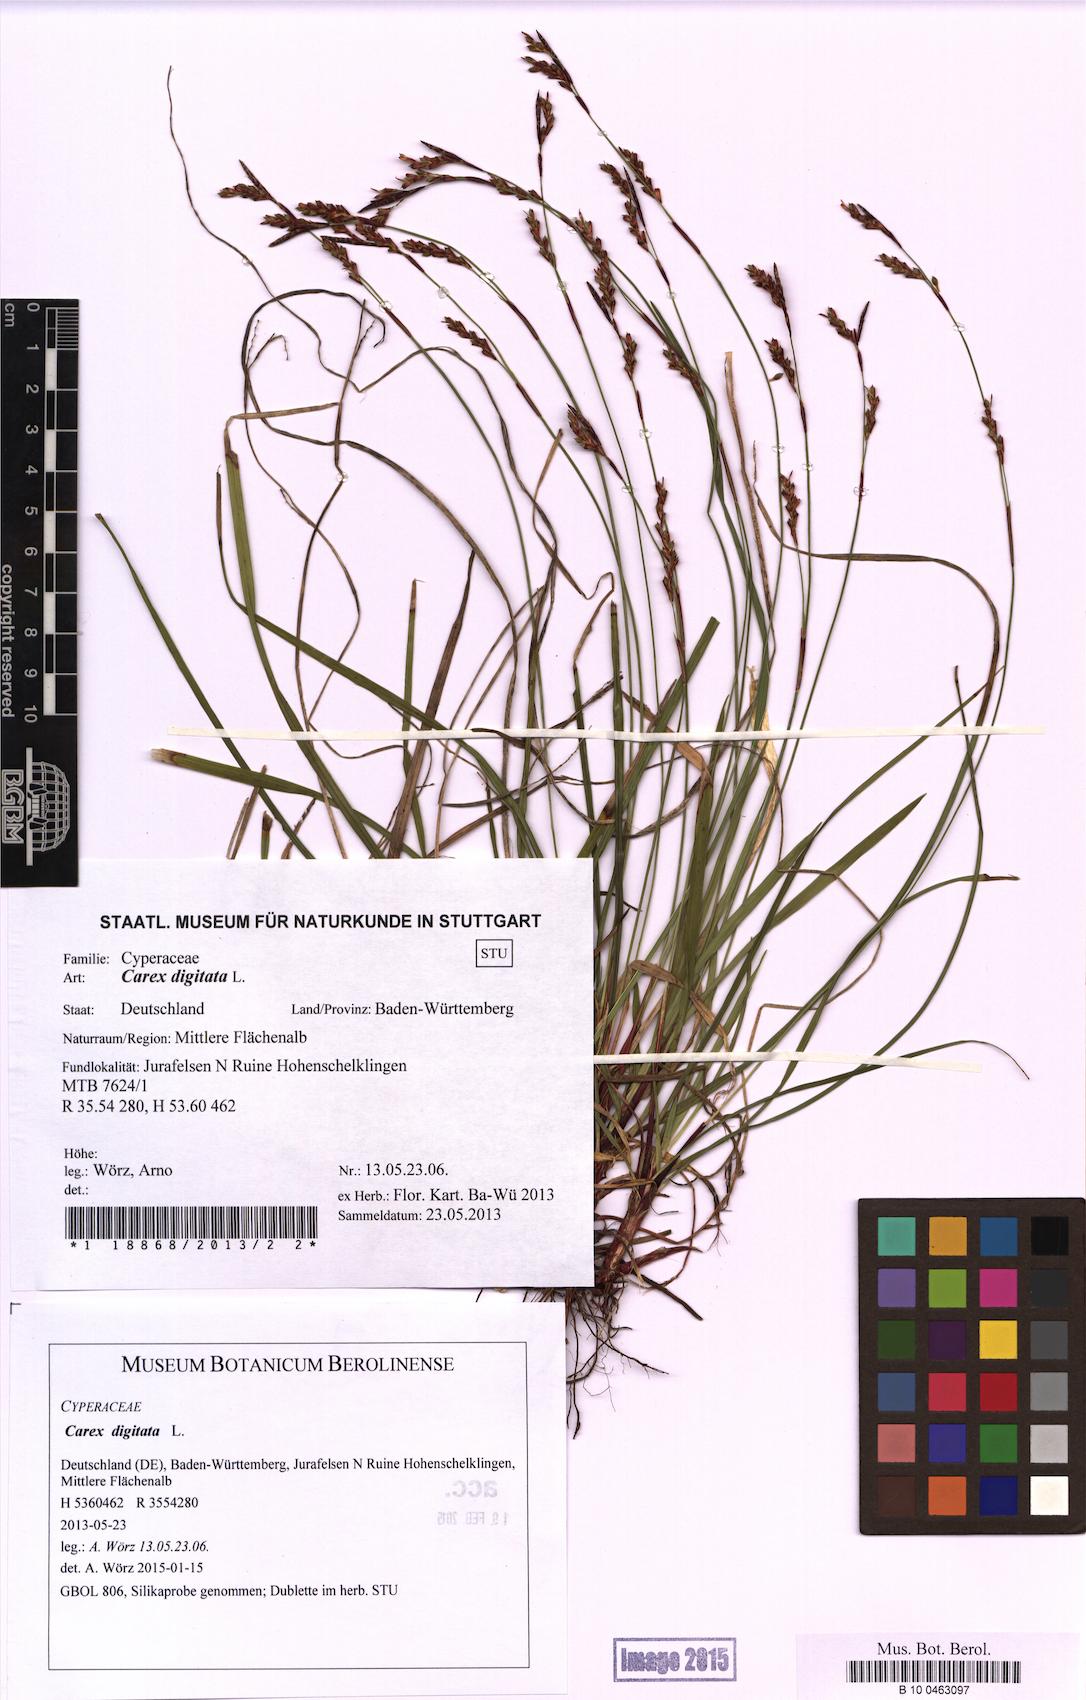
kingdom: Plantae
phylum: Tracheophyta
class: Liliopsida
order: Poales
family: Cyperaceae
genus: Carex
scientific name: Carex digitata
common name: Fingered sedge
